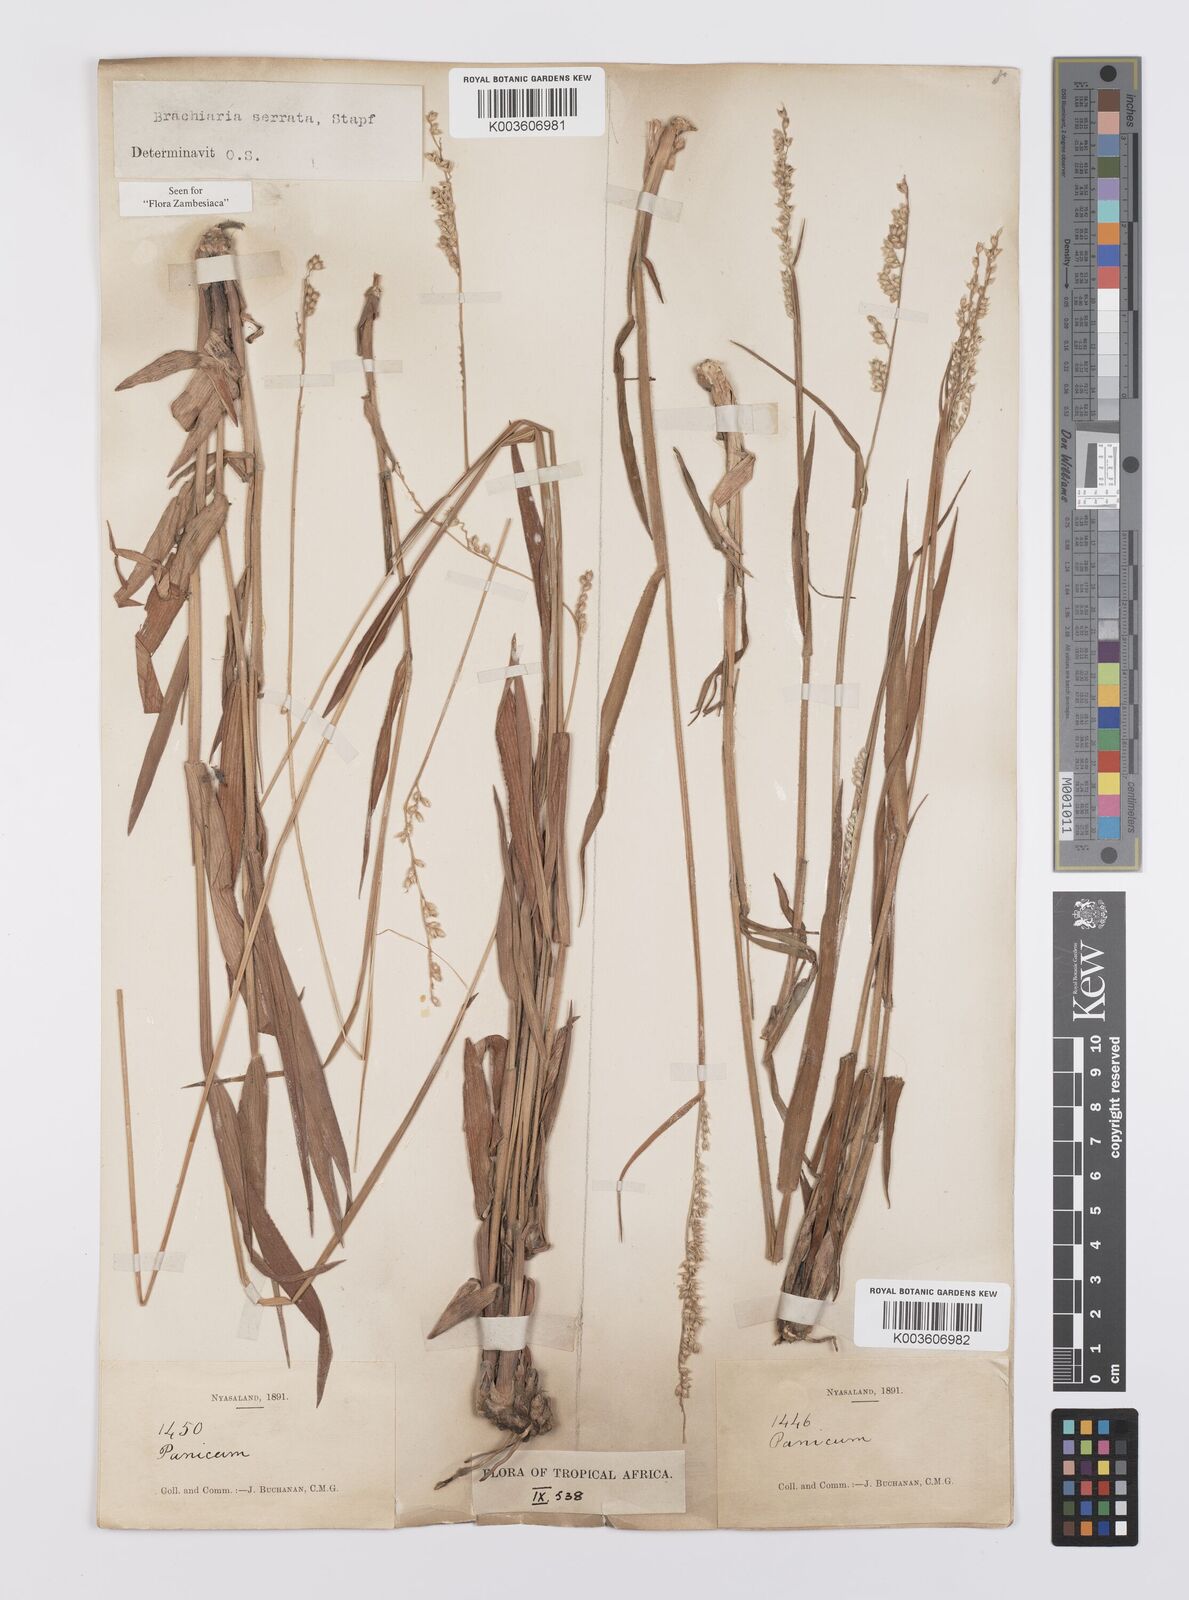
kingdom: Plantae
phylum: Tracheophyta
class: Liliopsida
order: Poales
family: Poaceae
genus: Urochloa
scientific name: Urochloa serrata
